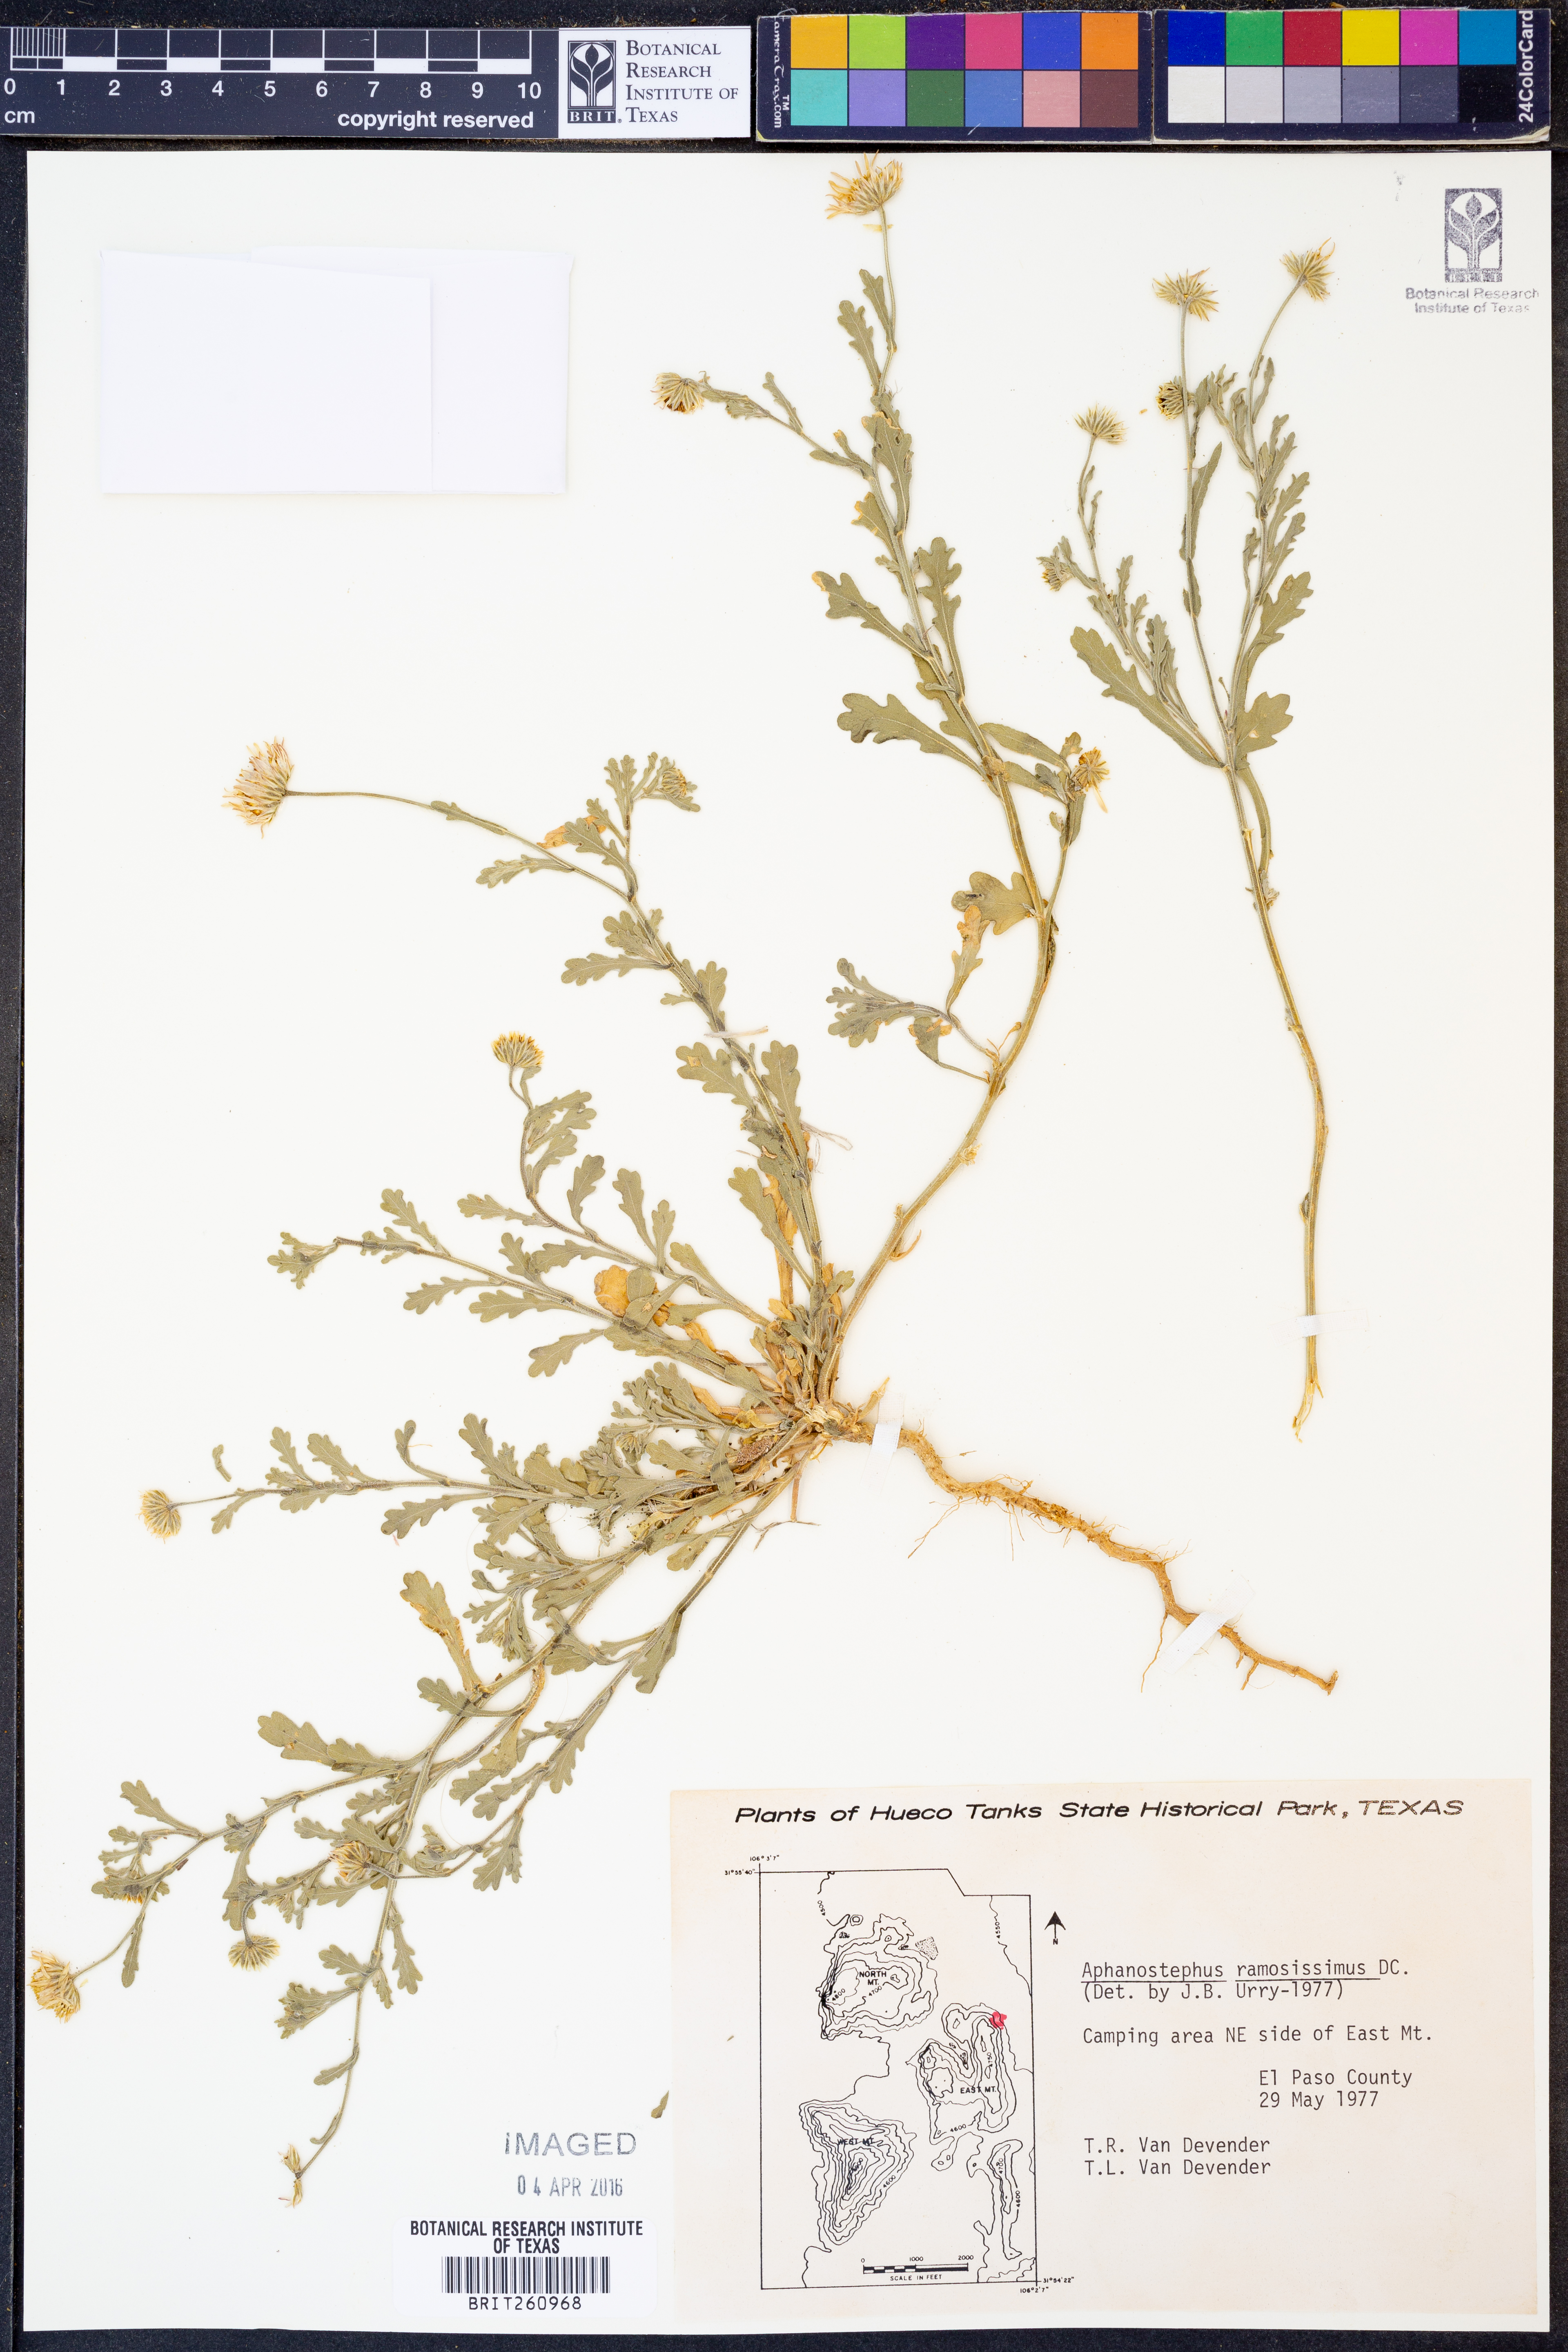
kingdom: Plantae
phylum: Tracheophyta
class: Magnoliopsida
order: Asterales
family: Asteraceae
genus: Aphanostephus
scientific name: Aphanostephus ramosissimus
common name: Plains lazy daisy
